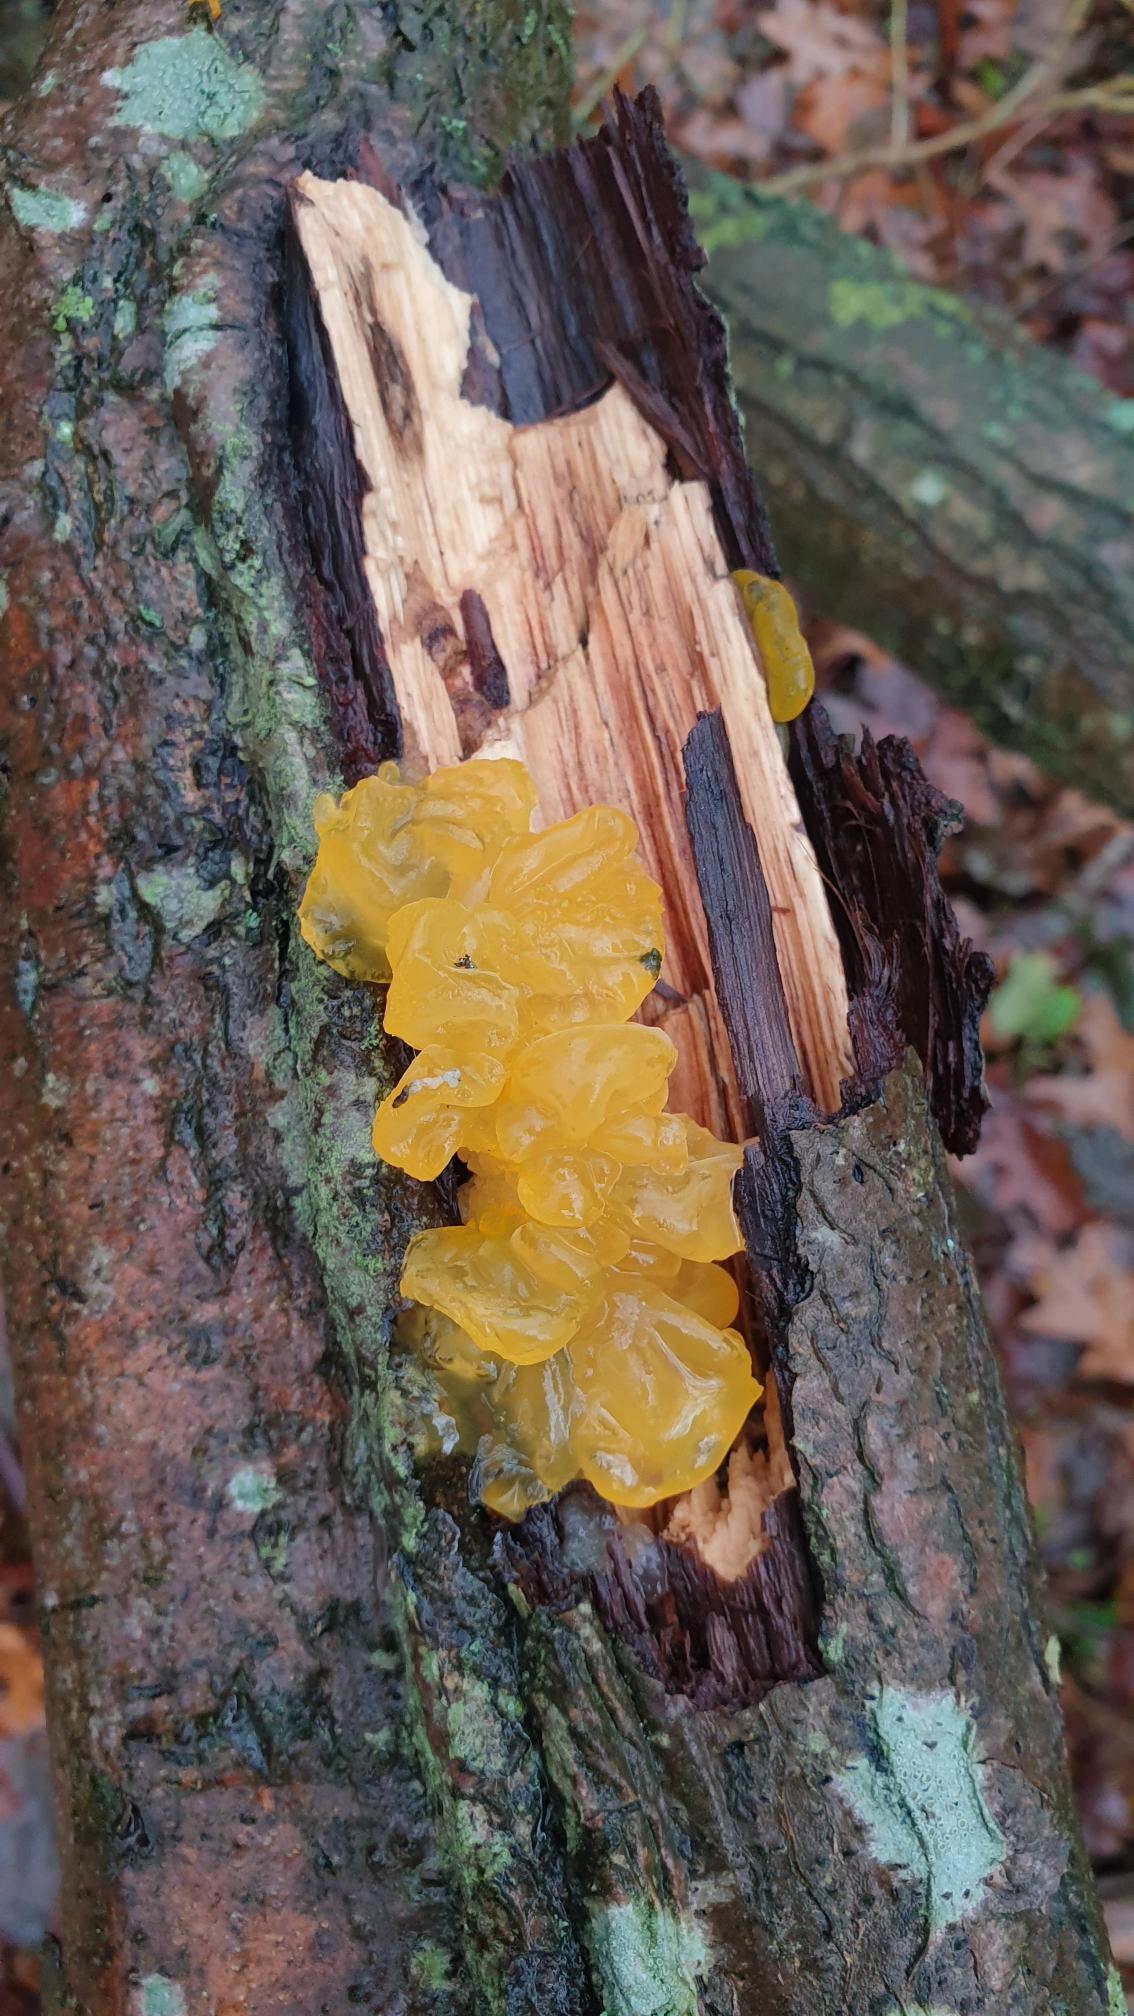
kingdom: Fungi
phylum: Basidiomycota
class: Tremellomycetes
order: Tremellales
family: Tremellaceae
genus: Tremella
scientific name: Tremella mesenterica
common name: Gul bævresvamp
